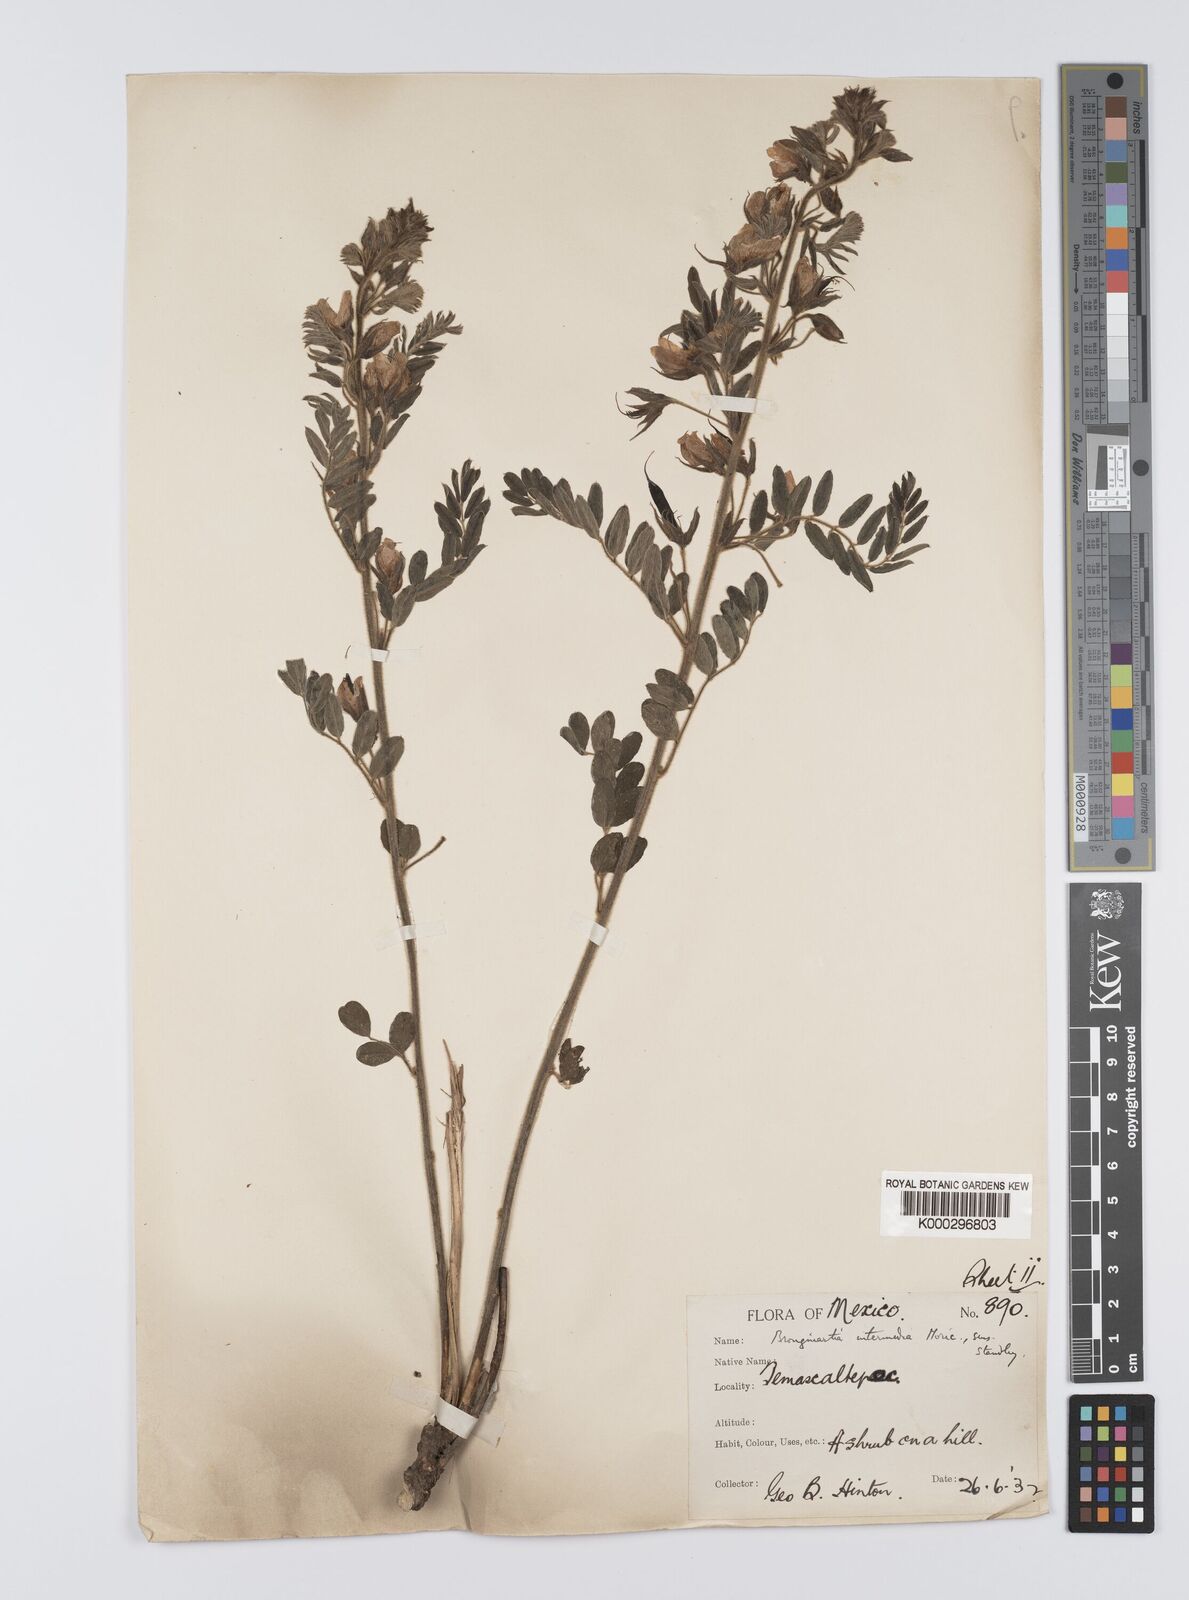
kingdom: Plantae
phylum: Tracheophyta
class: Magnoliopsida
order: Fabales
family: Fabaceae
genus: Brongniartia
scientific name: Brongniartia intermedia
